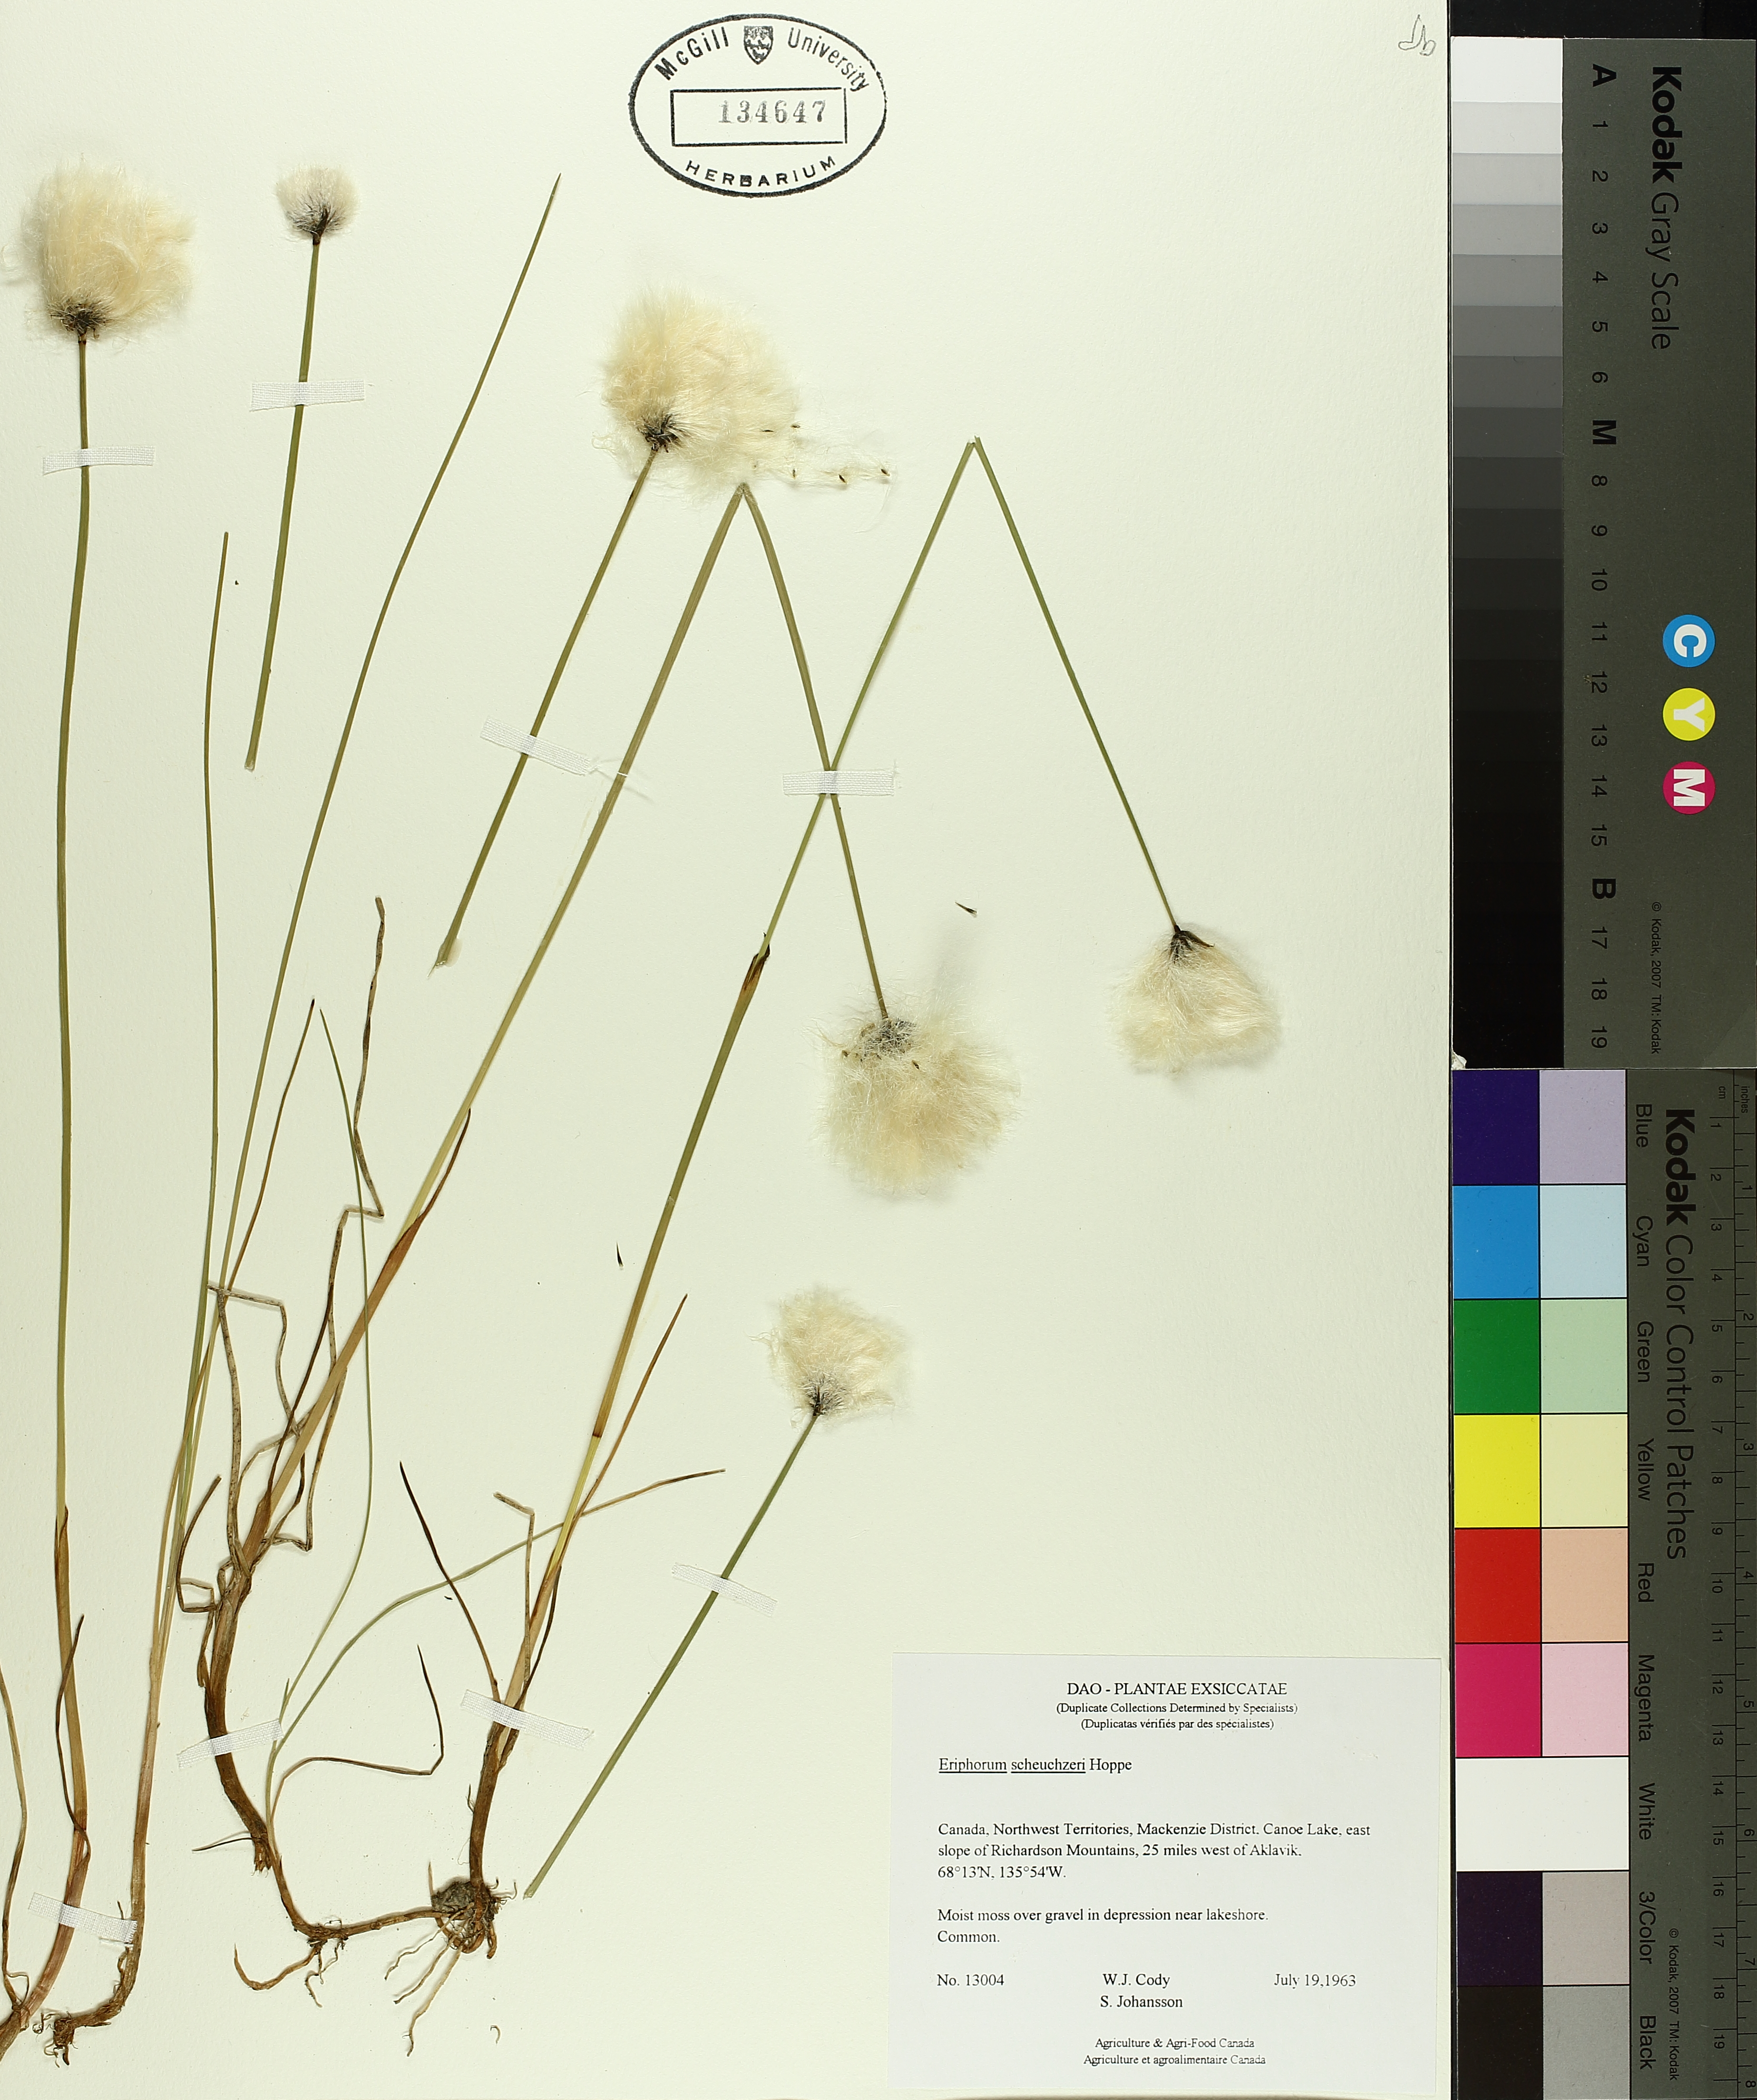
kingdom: Plantae
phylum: Tracheophyta
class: Liliopsida
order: Poales
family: Cyperaceae
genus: Eriophorum
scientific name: Eriophorum scheuchzeri
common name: Scheuchzer's cottongrass
